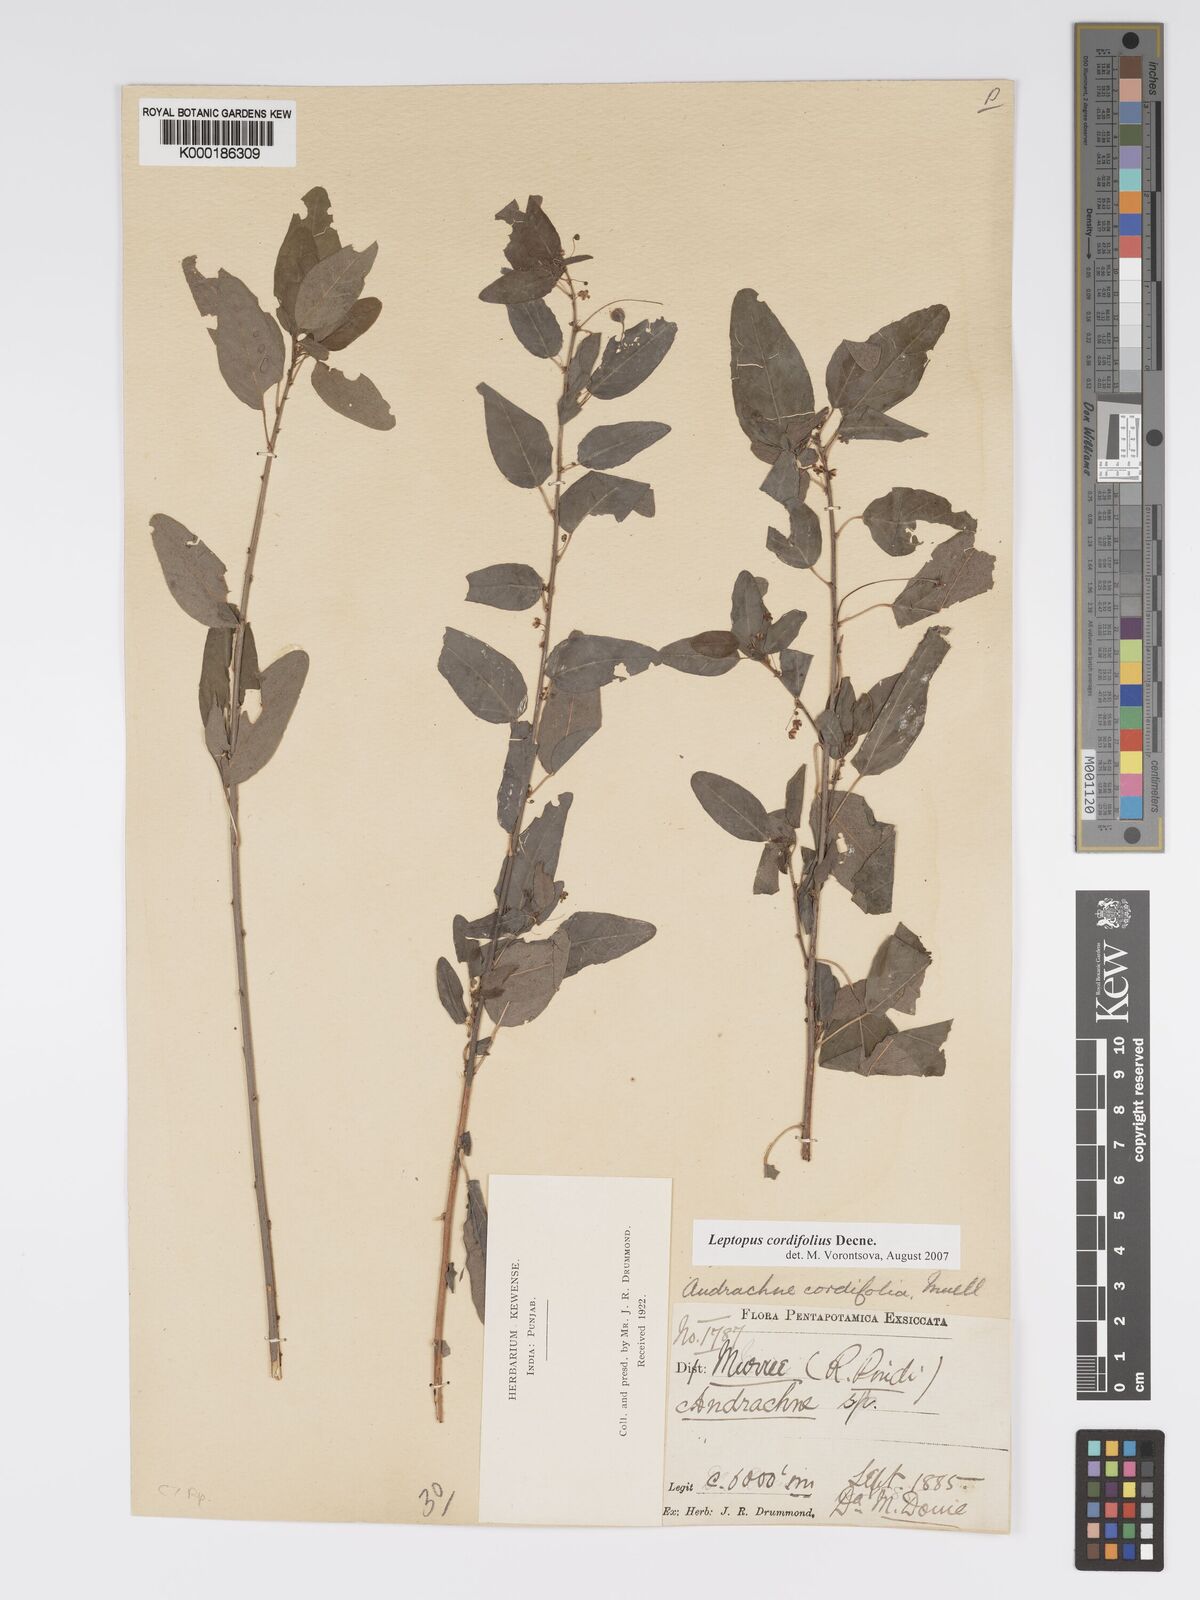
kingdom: Plantae
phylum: Tracheophyta
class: Magnoliopsida
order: Malpighiales
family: Phyllanthaceae
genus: Leptopus
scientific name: Leptopus cordifolius
